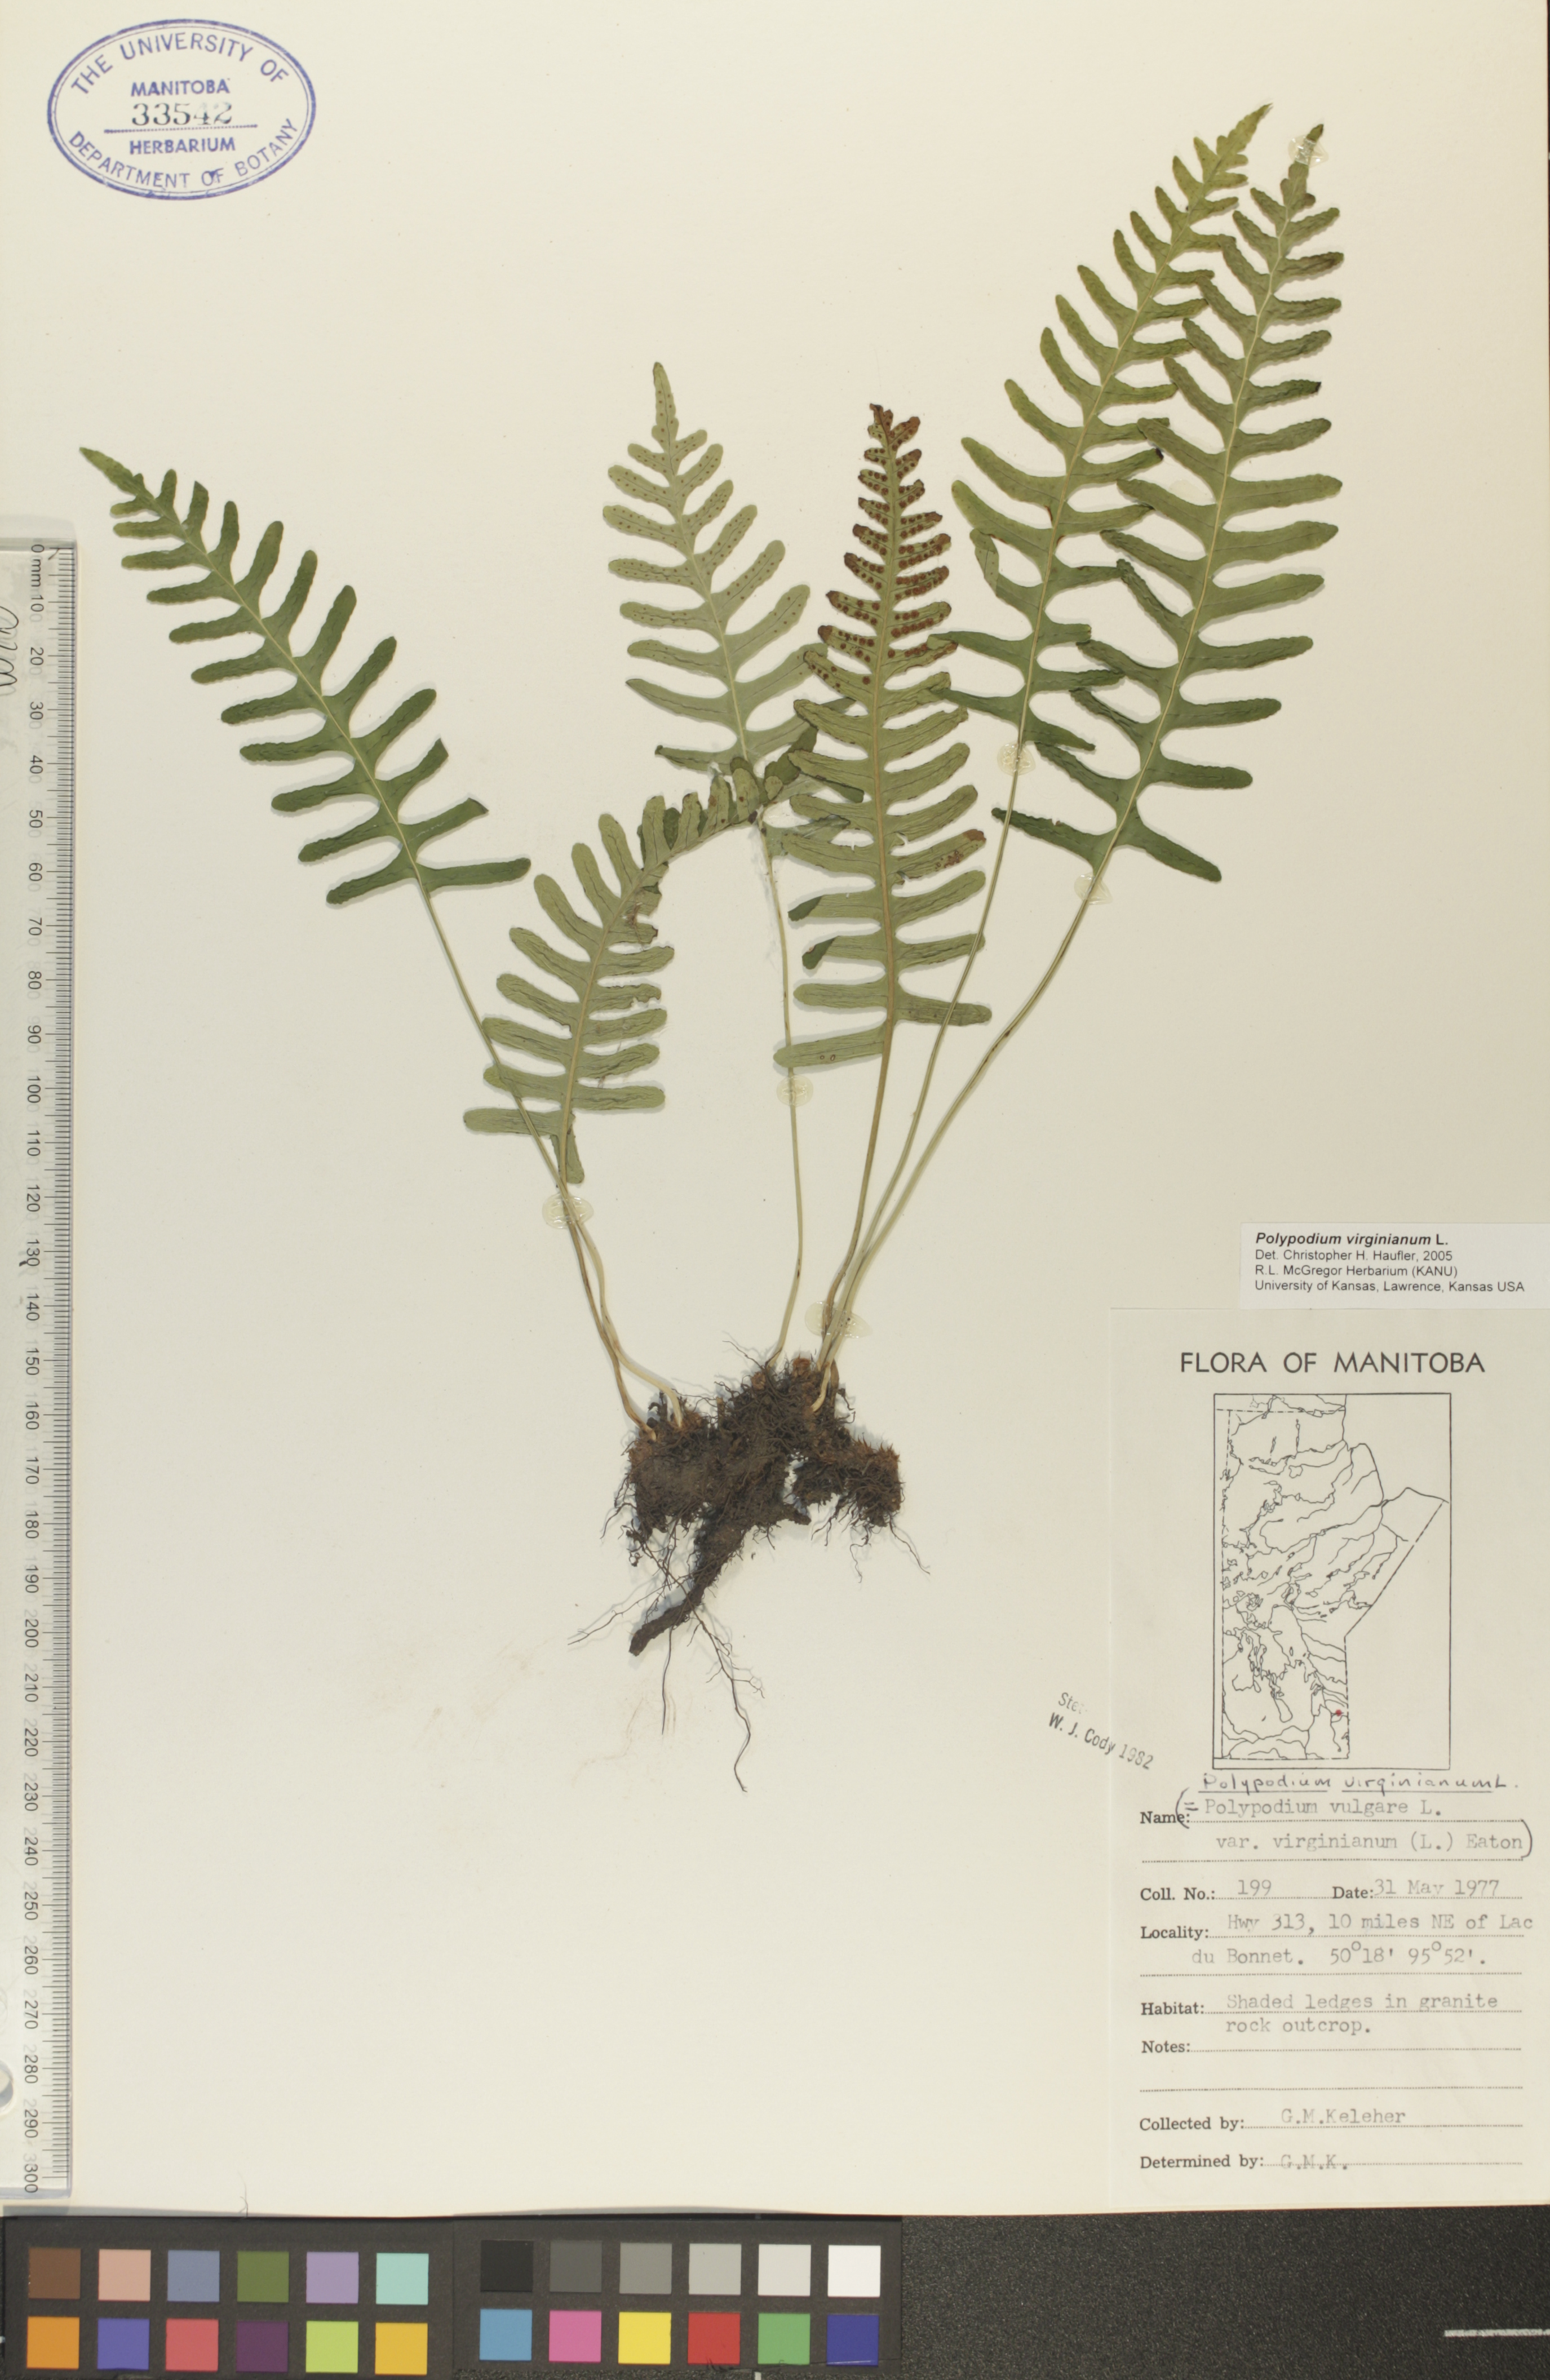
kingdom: Plantae
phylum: Tracheophyta
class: Polypodiopsida
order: Polypodiales
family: Polypodiaceae
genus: Polypodium
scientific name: Polypodium virginianum
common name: American wall fern
